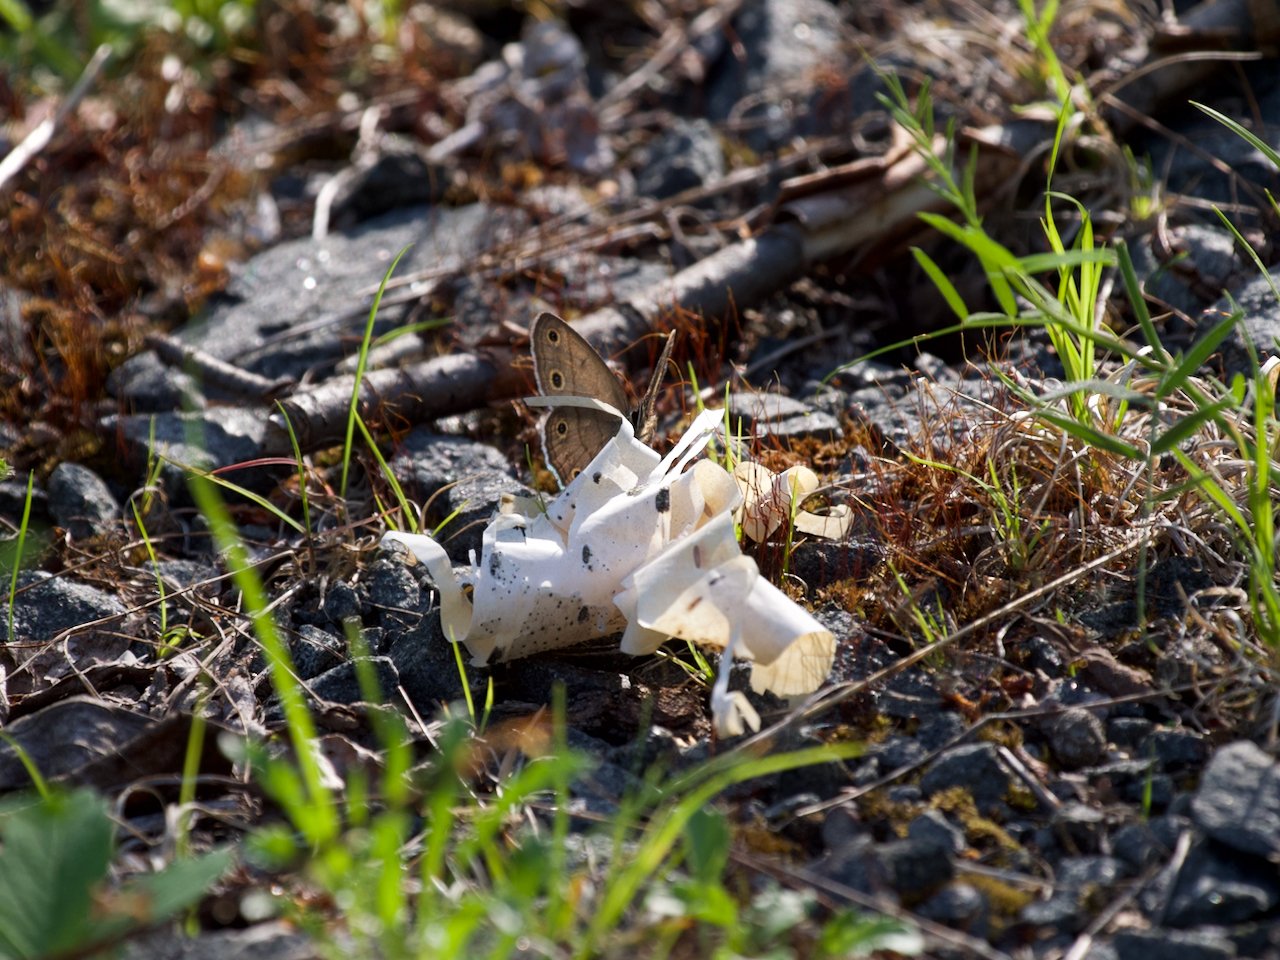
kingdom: Animalia
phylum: Arthropoda
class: Insecta
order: Lepidoptera
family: Nymphalidae
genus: Euptychia
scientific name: Euptychia cymela
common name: Little Wood Satyr
